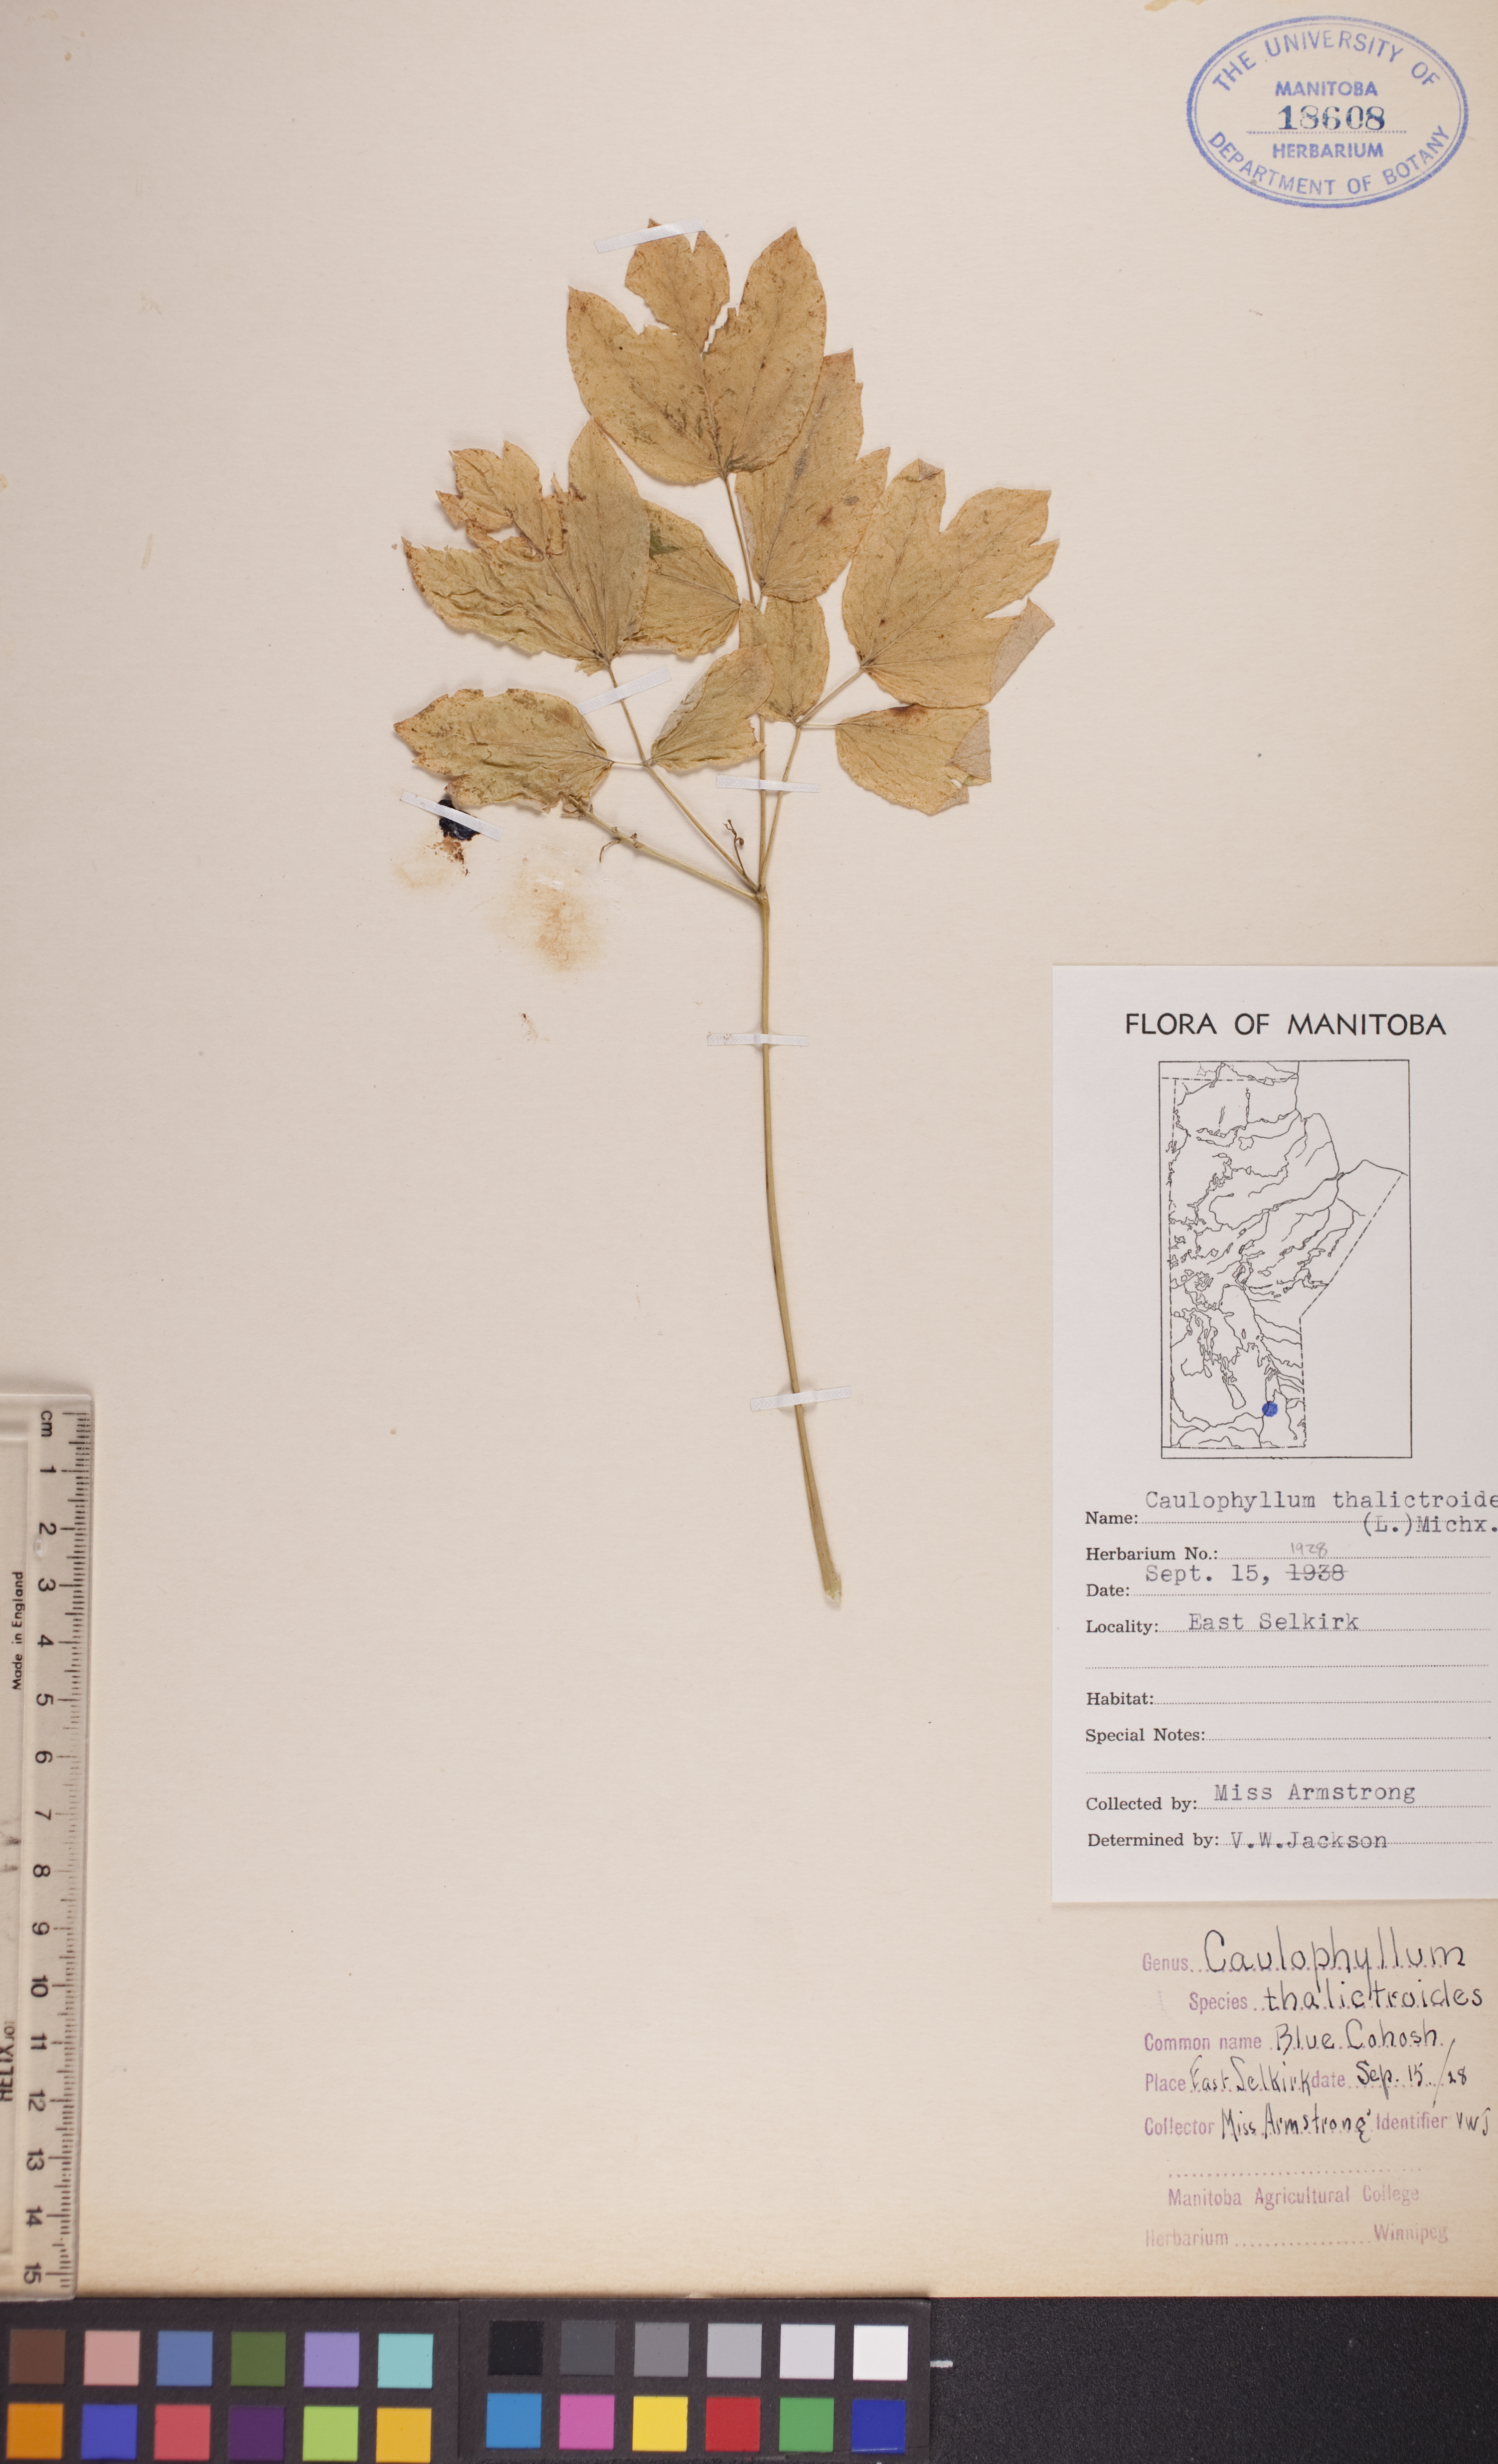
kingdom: Plantae
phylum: Tracheophyta
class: Magnoliopsida
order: Ranunculales
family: Berberidaceae
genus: Caulophyllum
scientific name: Caulophyllum thalictroides
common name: Blue cohosh
